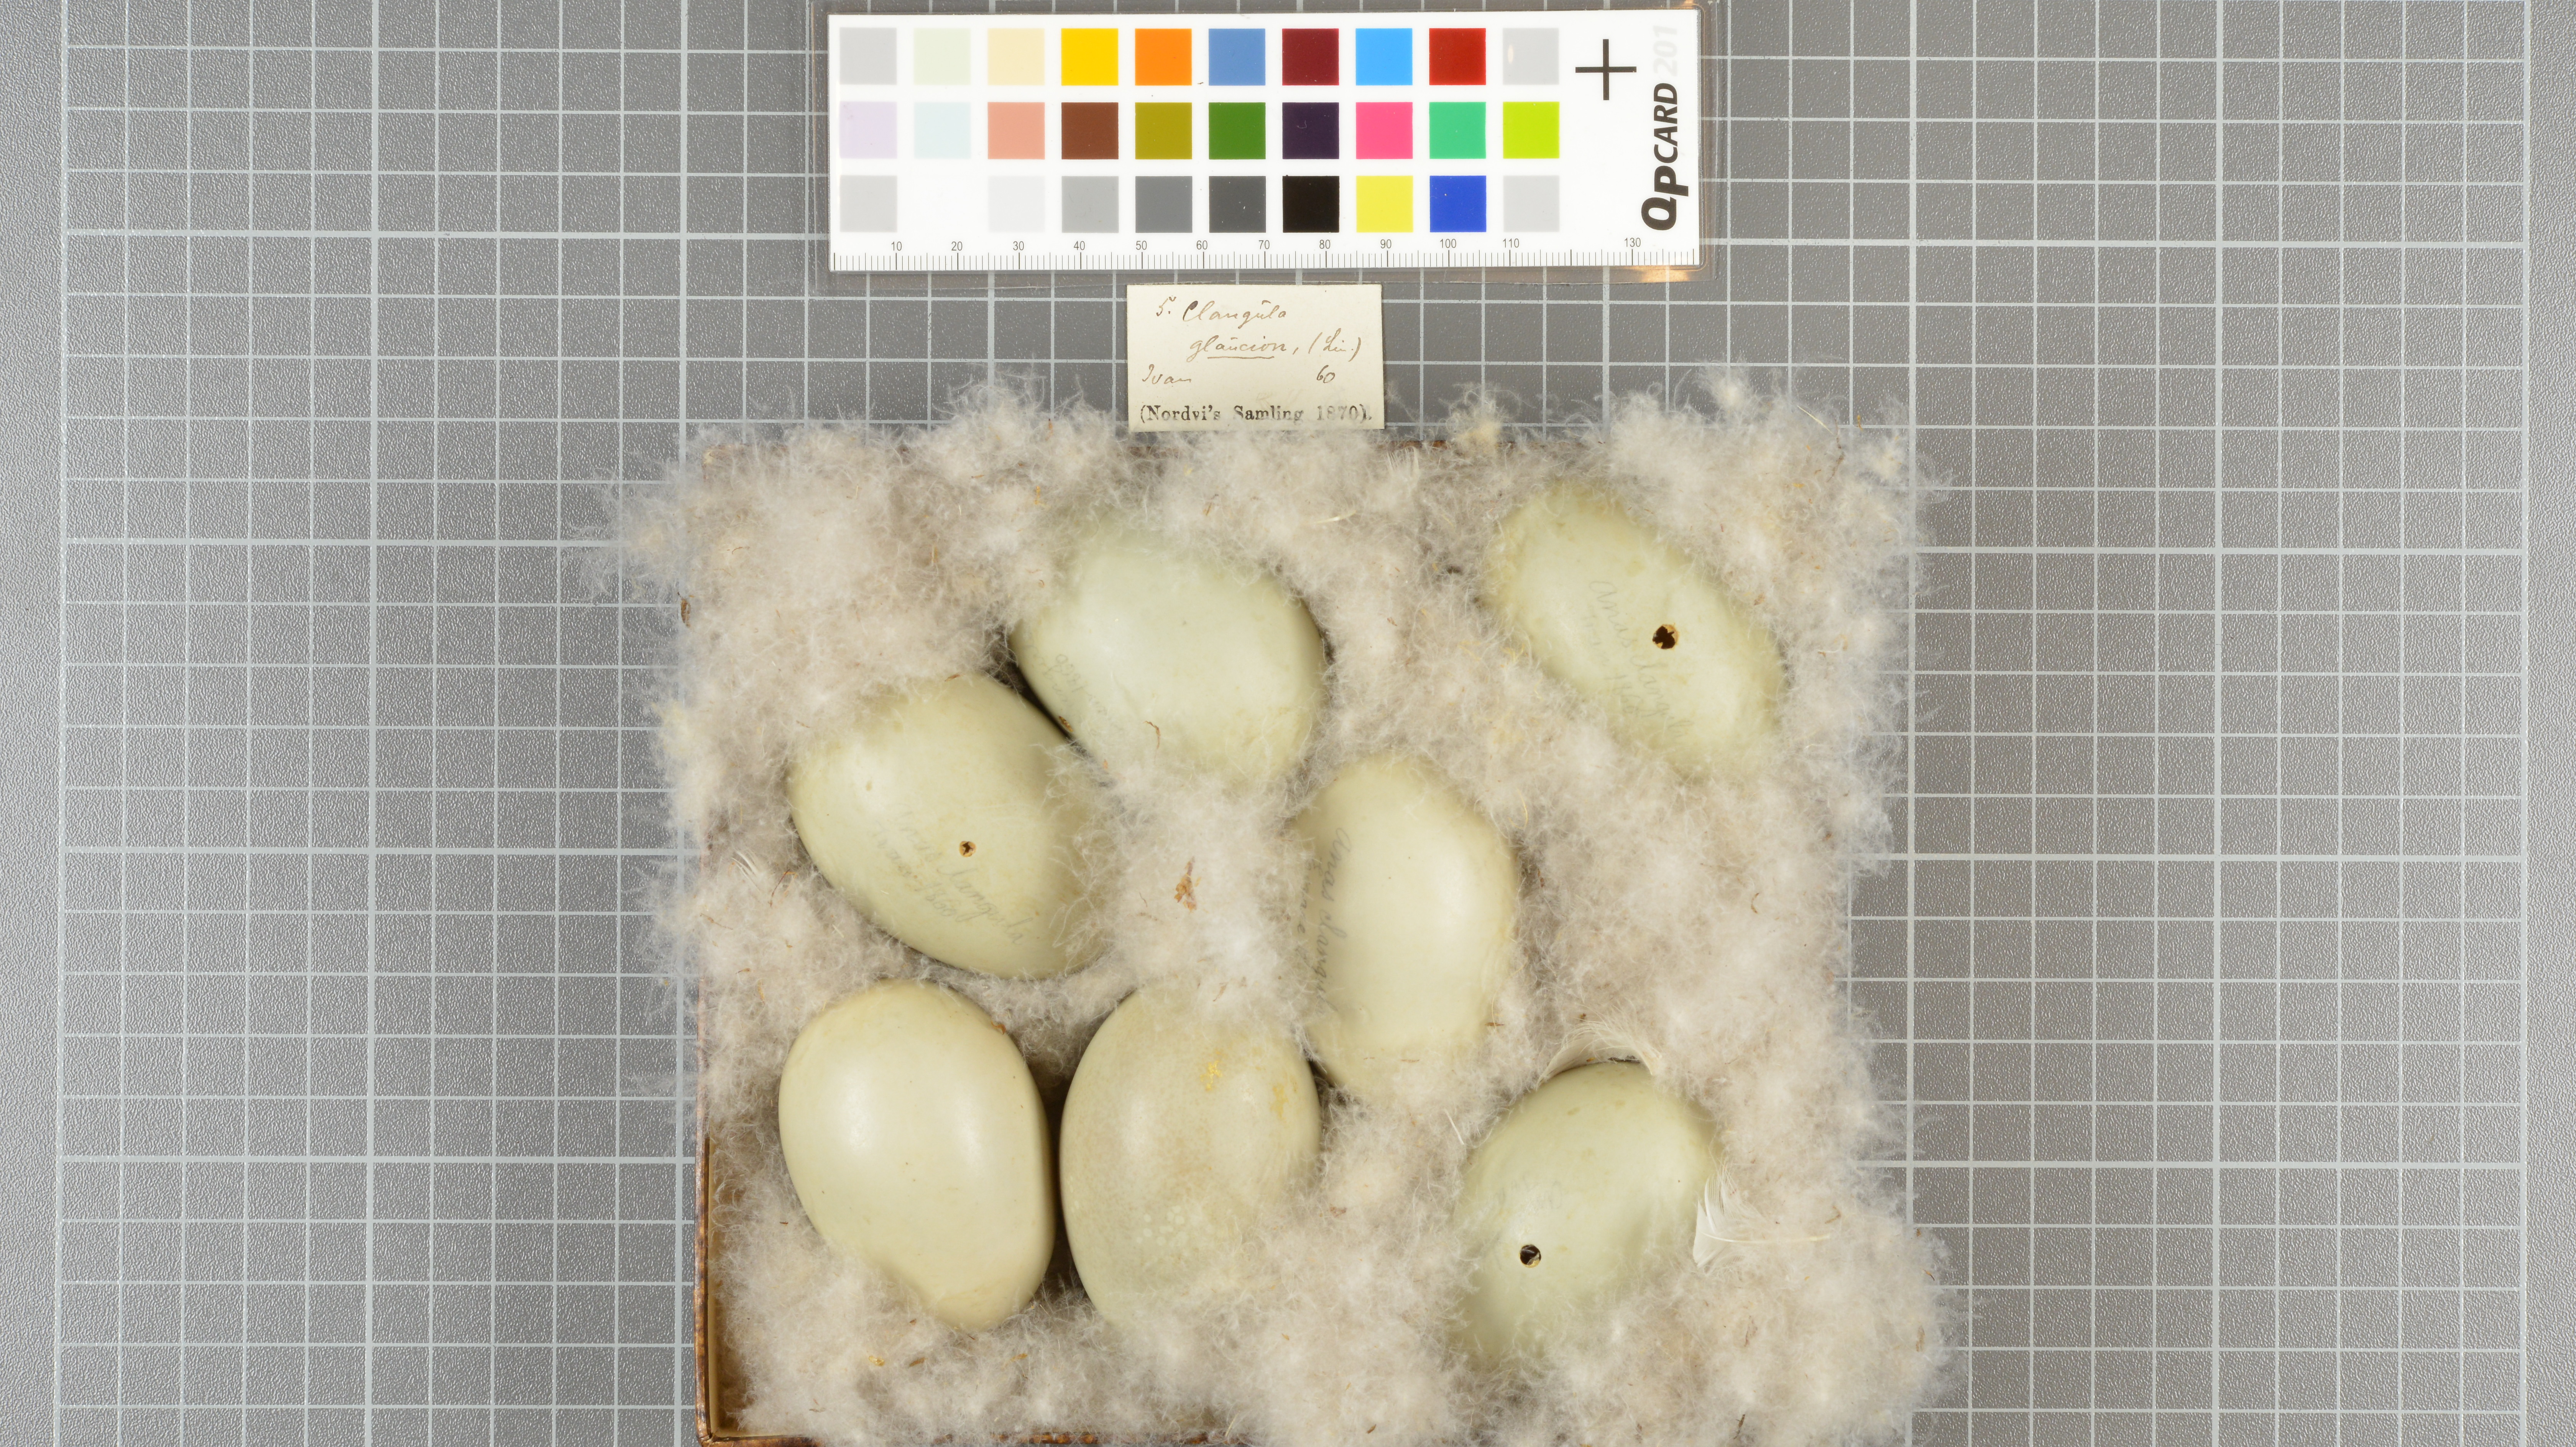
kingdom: Animalia
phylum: Chordata
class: Aves
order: Anseriformes
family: Anatidae
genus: Bucephala
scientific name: Bucephala clangula
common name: Common goldeneye
